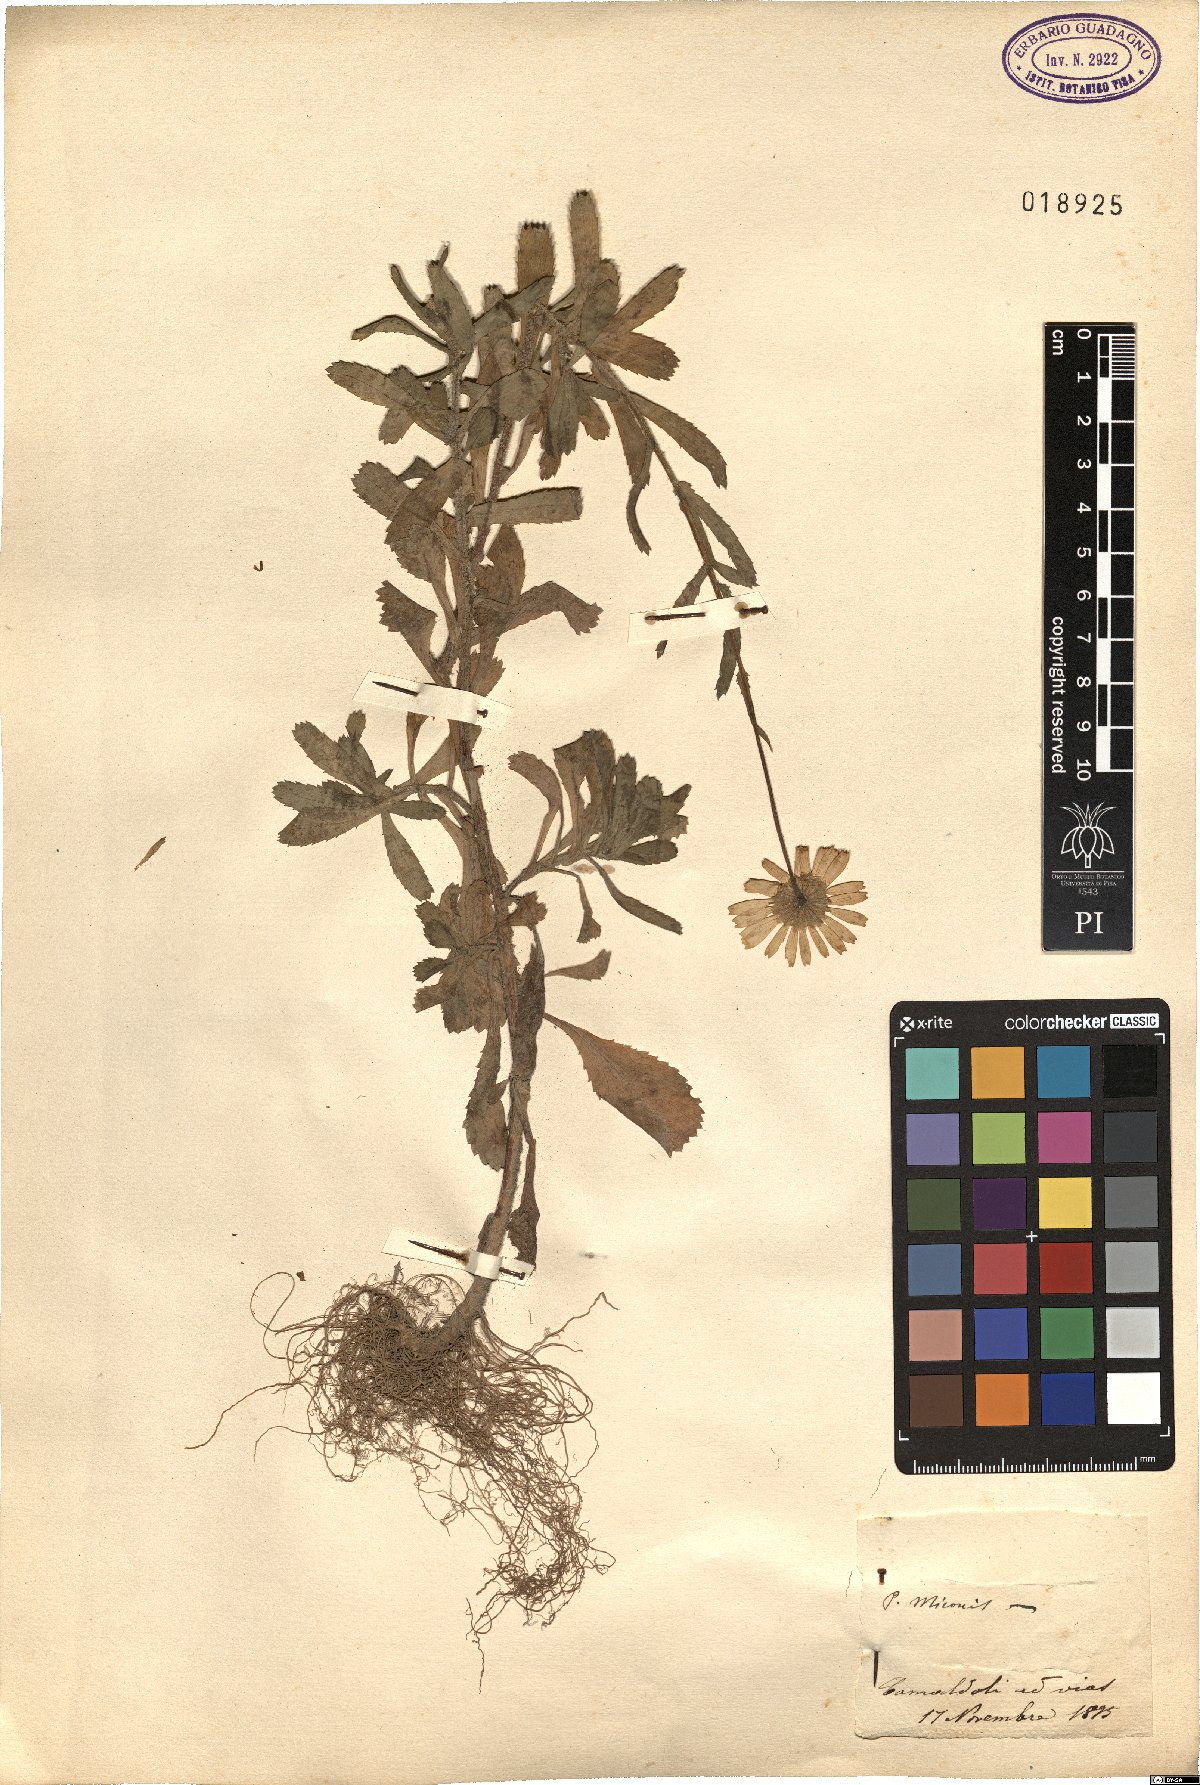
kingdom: Plantae
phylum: Tracheophyta
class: Magnoliopsida
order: Asterales
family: Asteraceae
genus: Coleostephus
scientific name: Coleostephus myconis
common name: Mediterranean marigold
